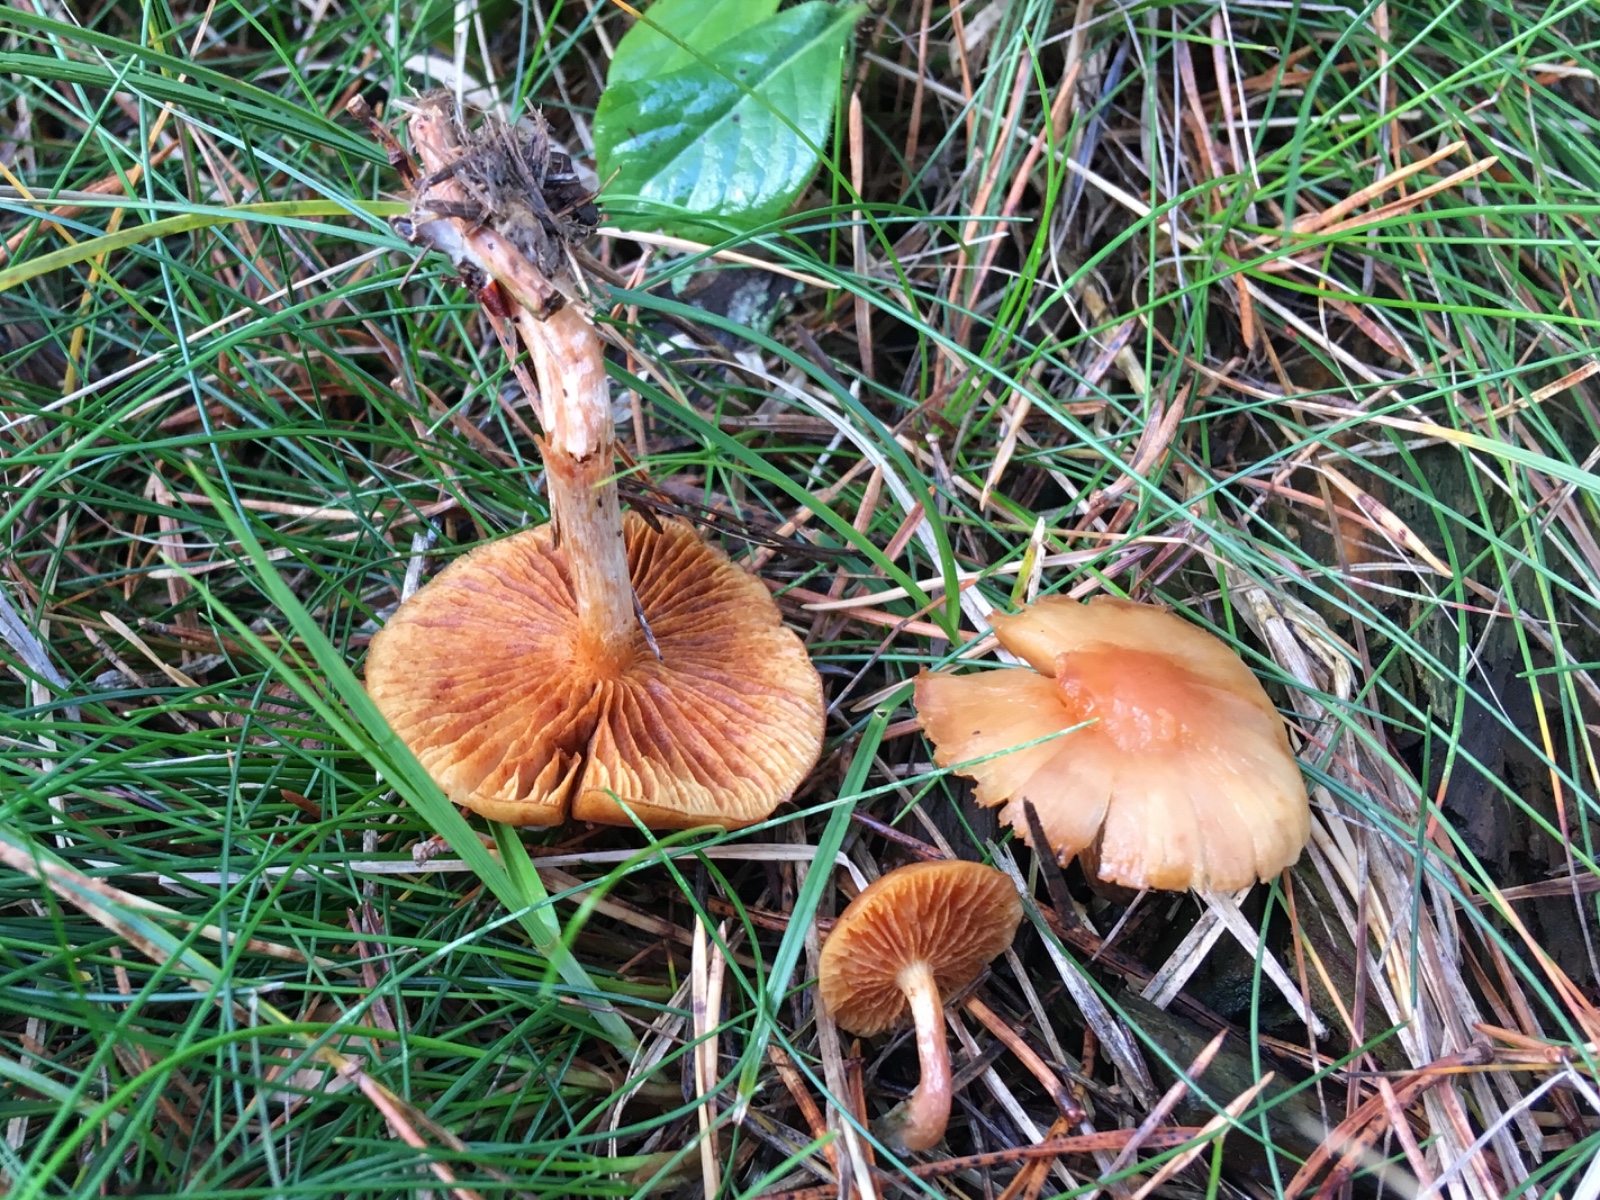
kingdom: Fungi
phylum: Basidiomycota
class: Agaricomycetes
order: Agaricales
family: Hymenogastraceae
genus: Gymnopilus
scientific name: Gymnopilus spectabilis
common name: fibret flammehat
